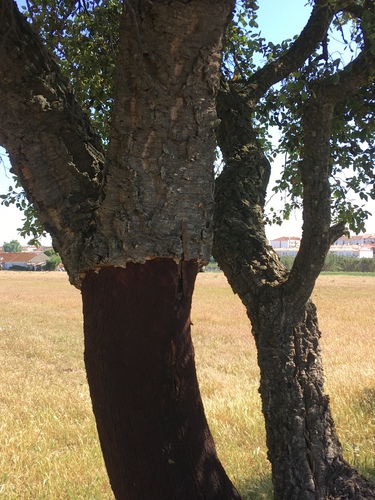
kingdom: Plantae
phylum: Tracheophyta
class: Magnoliopsida
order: Fagales
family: Fagaceae
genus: Quercus
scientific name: Quercus suber
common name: Cork oak
